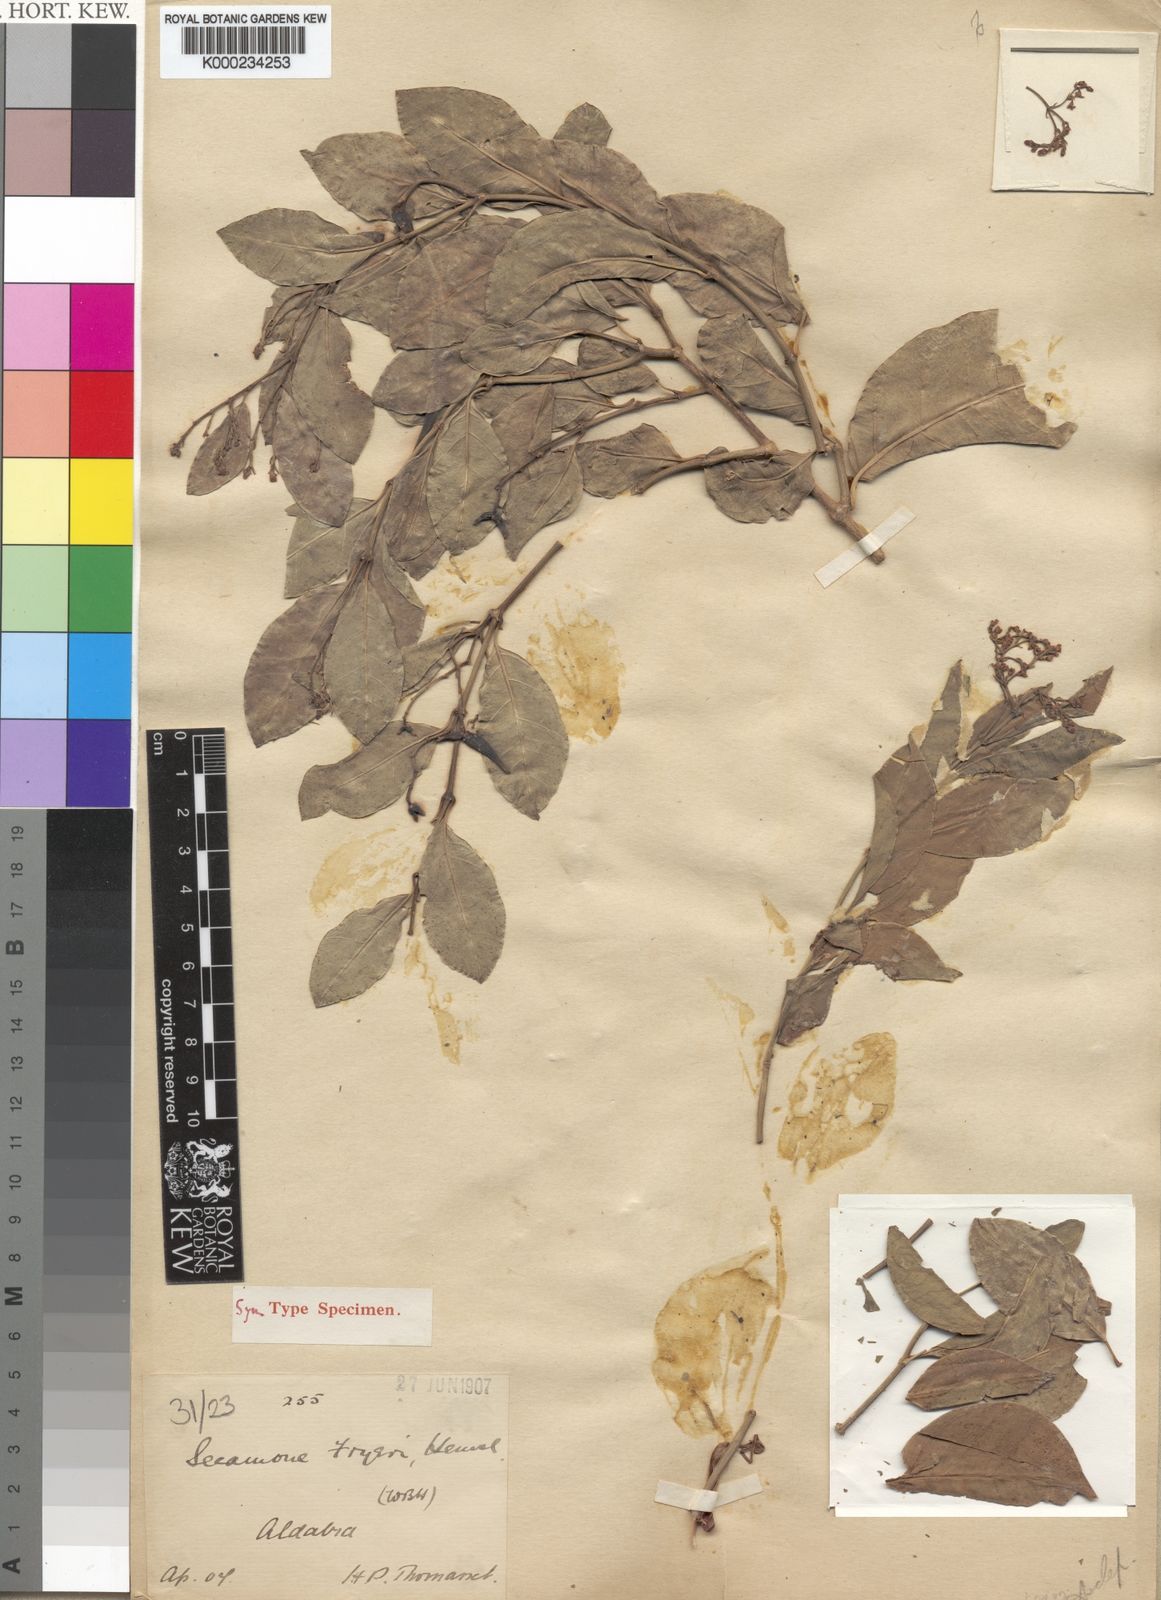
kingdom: Plantae
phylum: Tracheophyta
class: Magnoliopsida
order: Gentianales
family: Apocynaceae
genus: Secamone
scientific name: Secamone pachystigma
